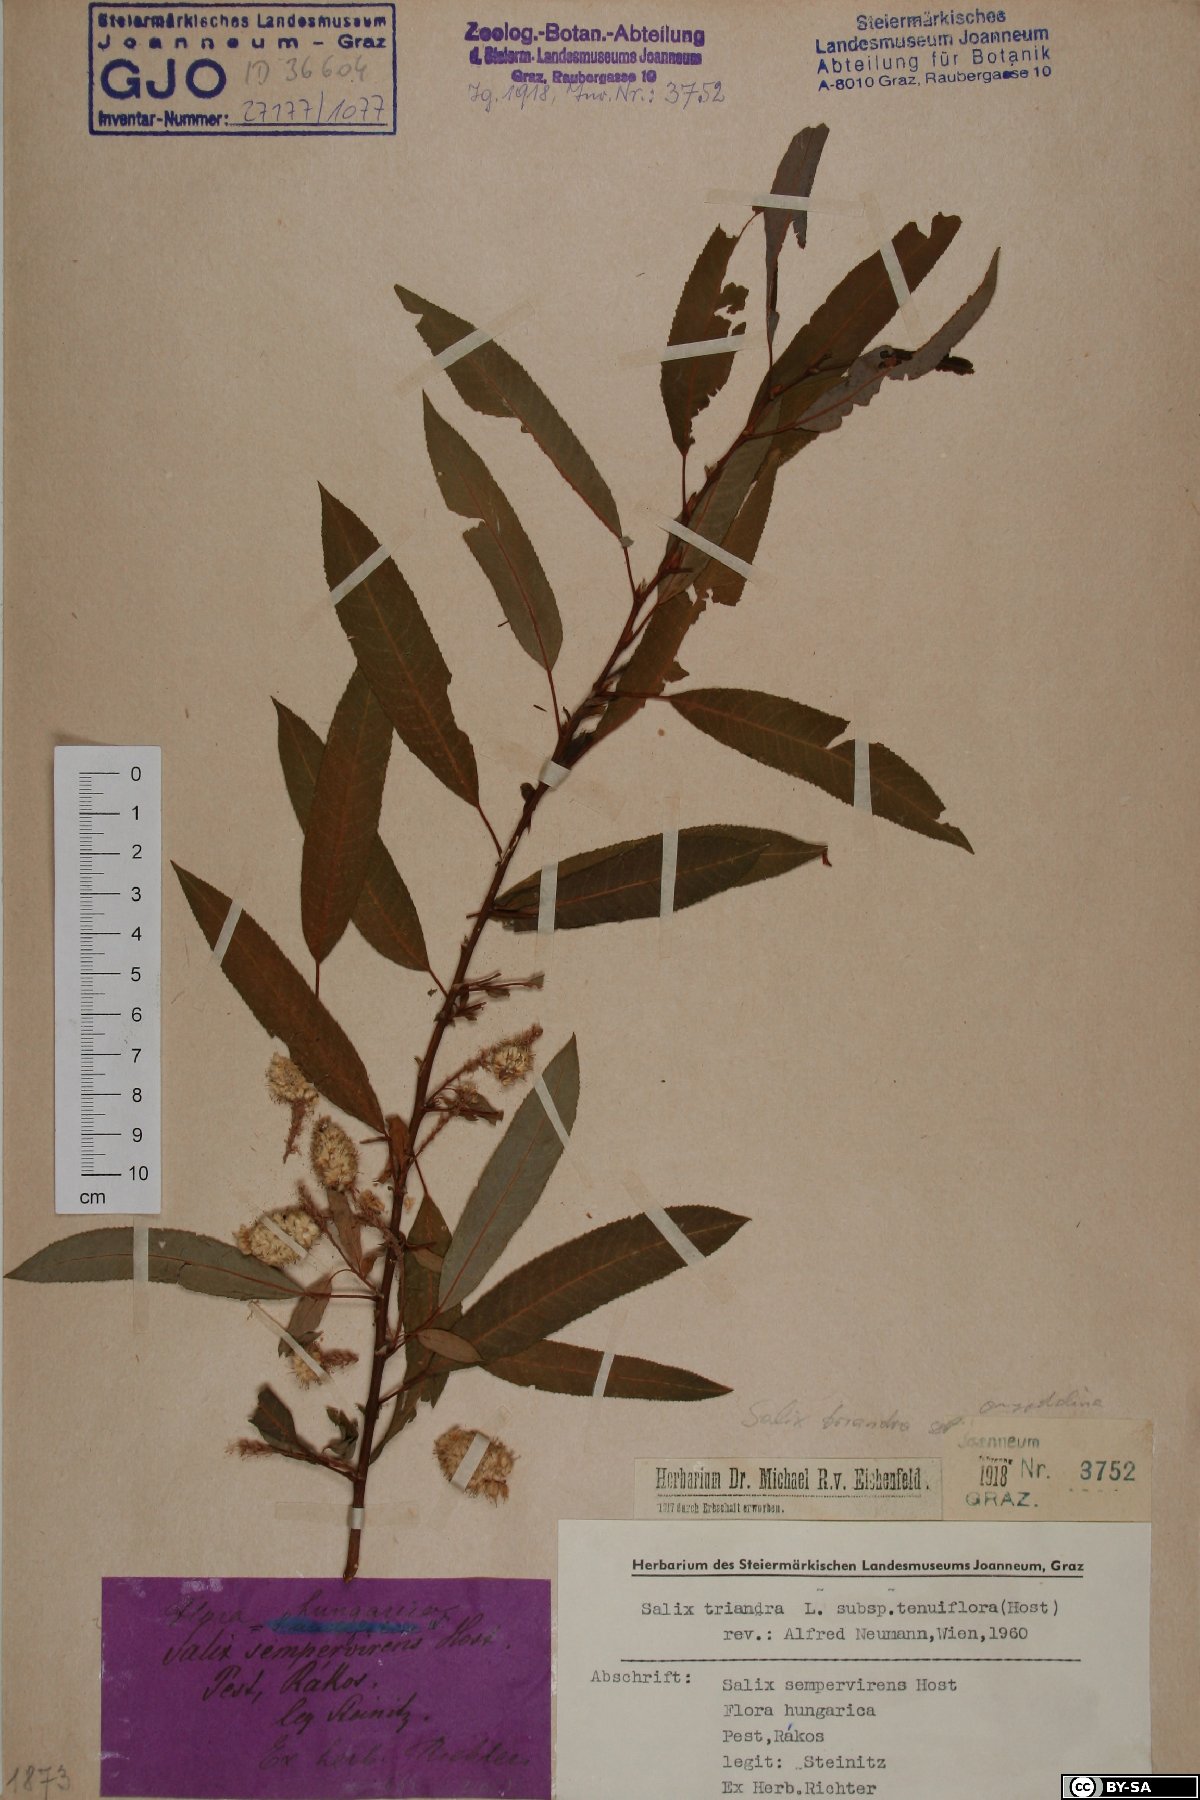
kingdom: Plantae
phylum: Tracheophyta
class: Magnoliopsida
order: Malpighiales
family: Salicaceae
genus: Salix
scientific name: Salix triandra
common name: Almond willow
